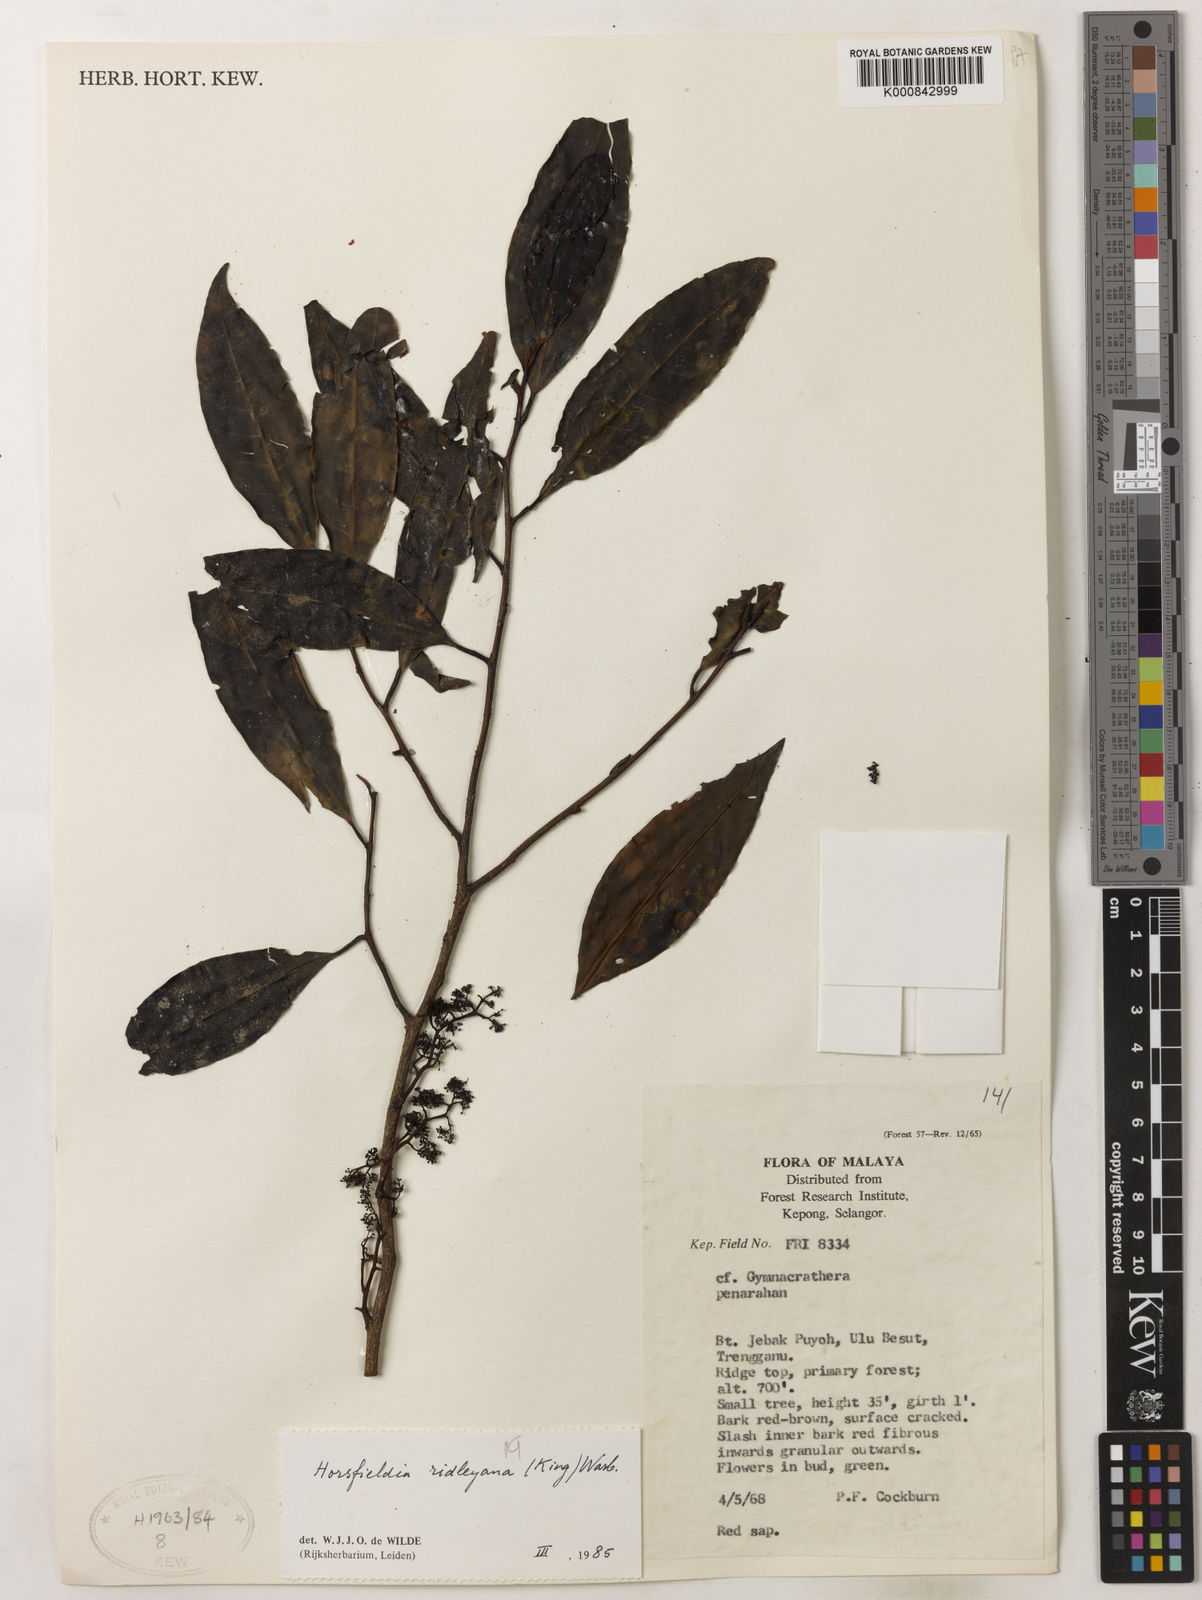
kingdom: Plantae
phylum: Tracheophyta
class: Magnoliopsida
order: Magnoliales
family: Myristicaceae
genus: Horsfieldia
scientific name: Horsfieldia ridleyana
